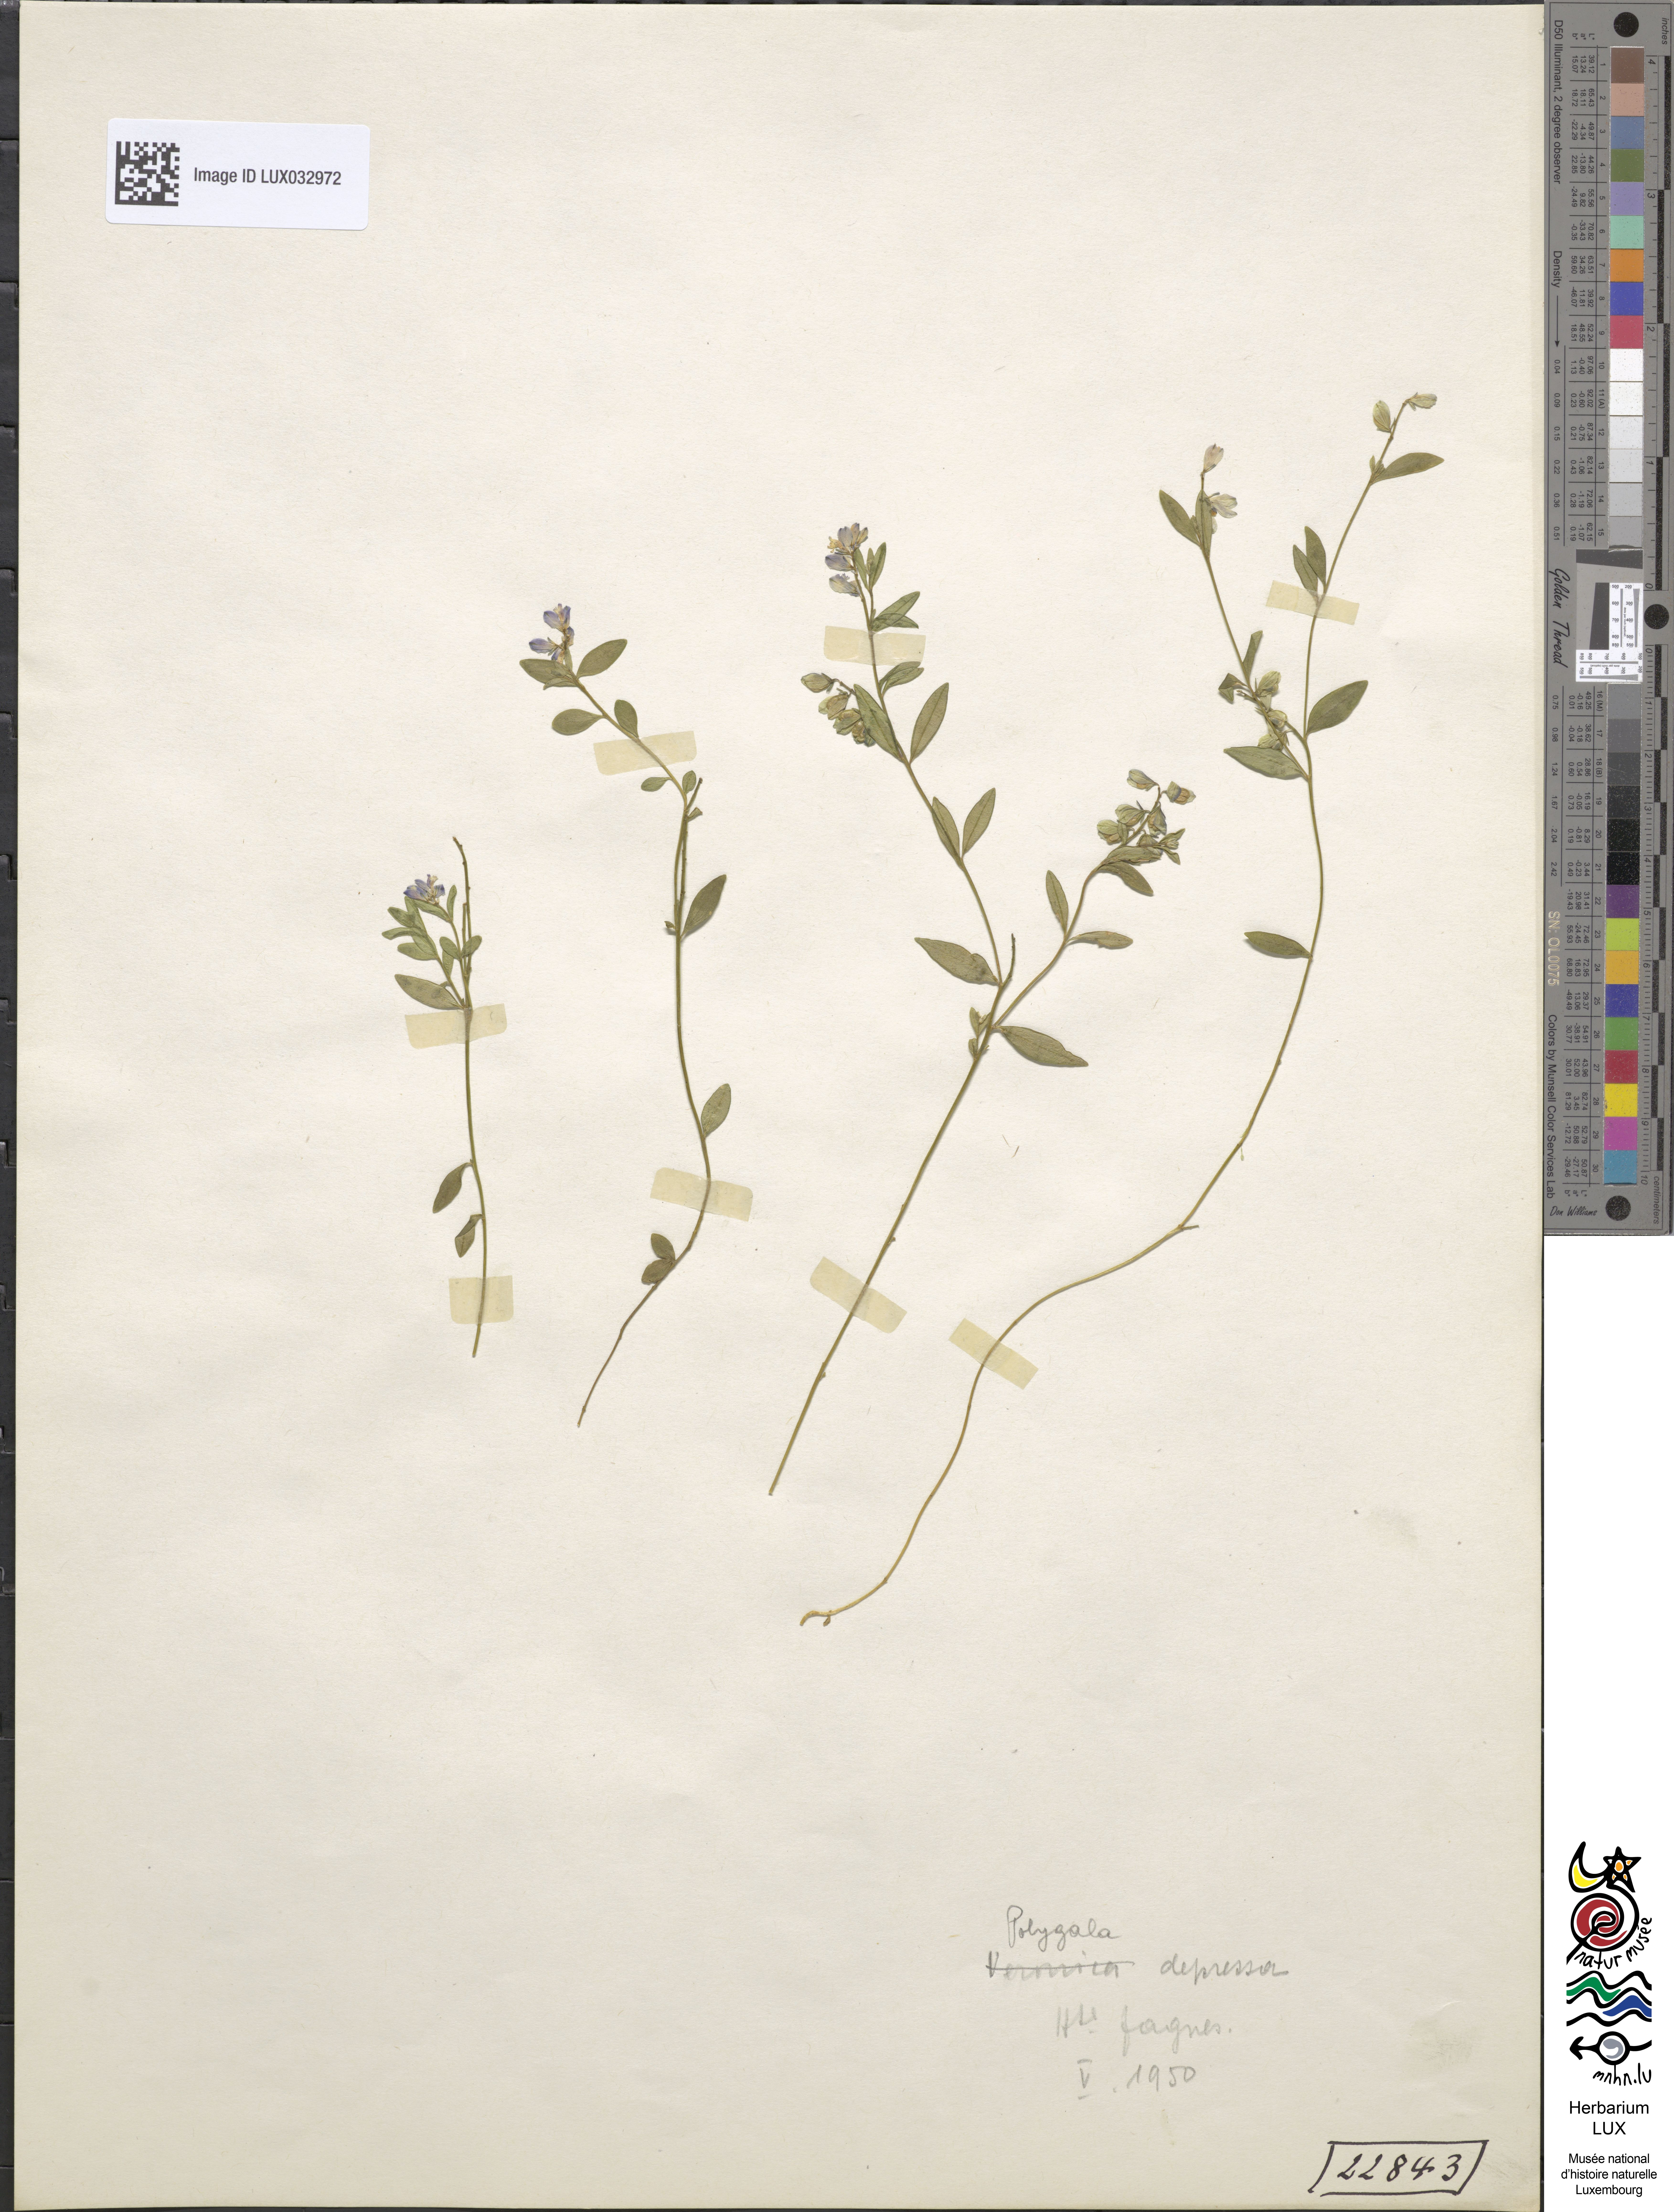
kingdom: Plantae
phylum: Tracheophyta
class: Magnoliopsida
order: Fabales
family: Polygalaceae
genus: Polygala
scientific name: Polygala serpyllifolia
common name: Heath milkwort
